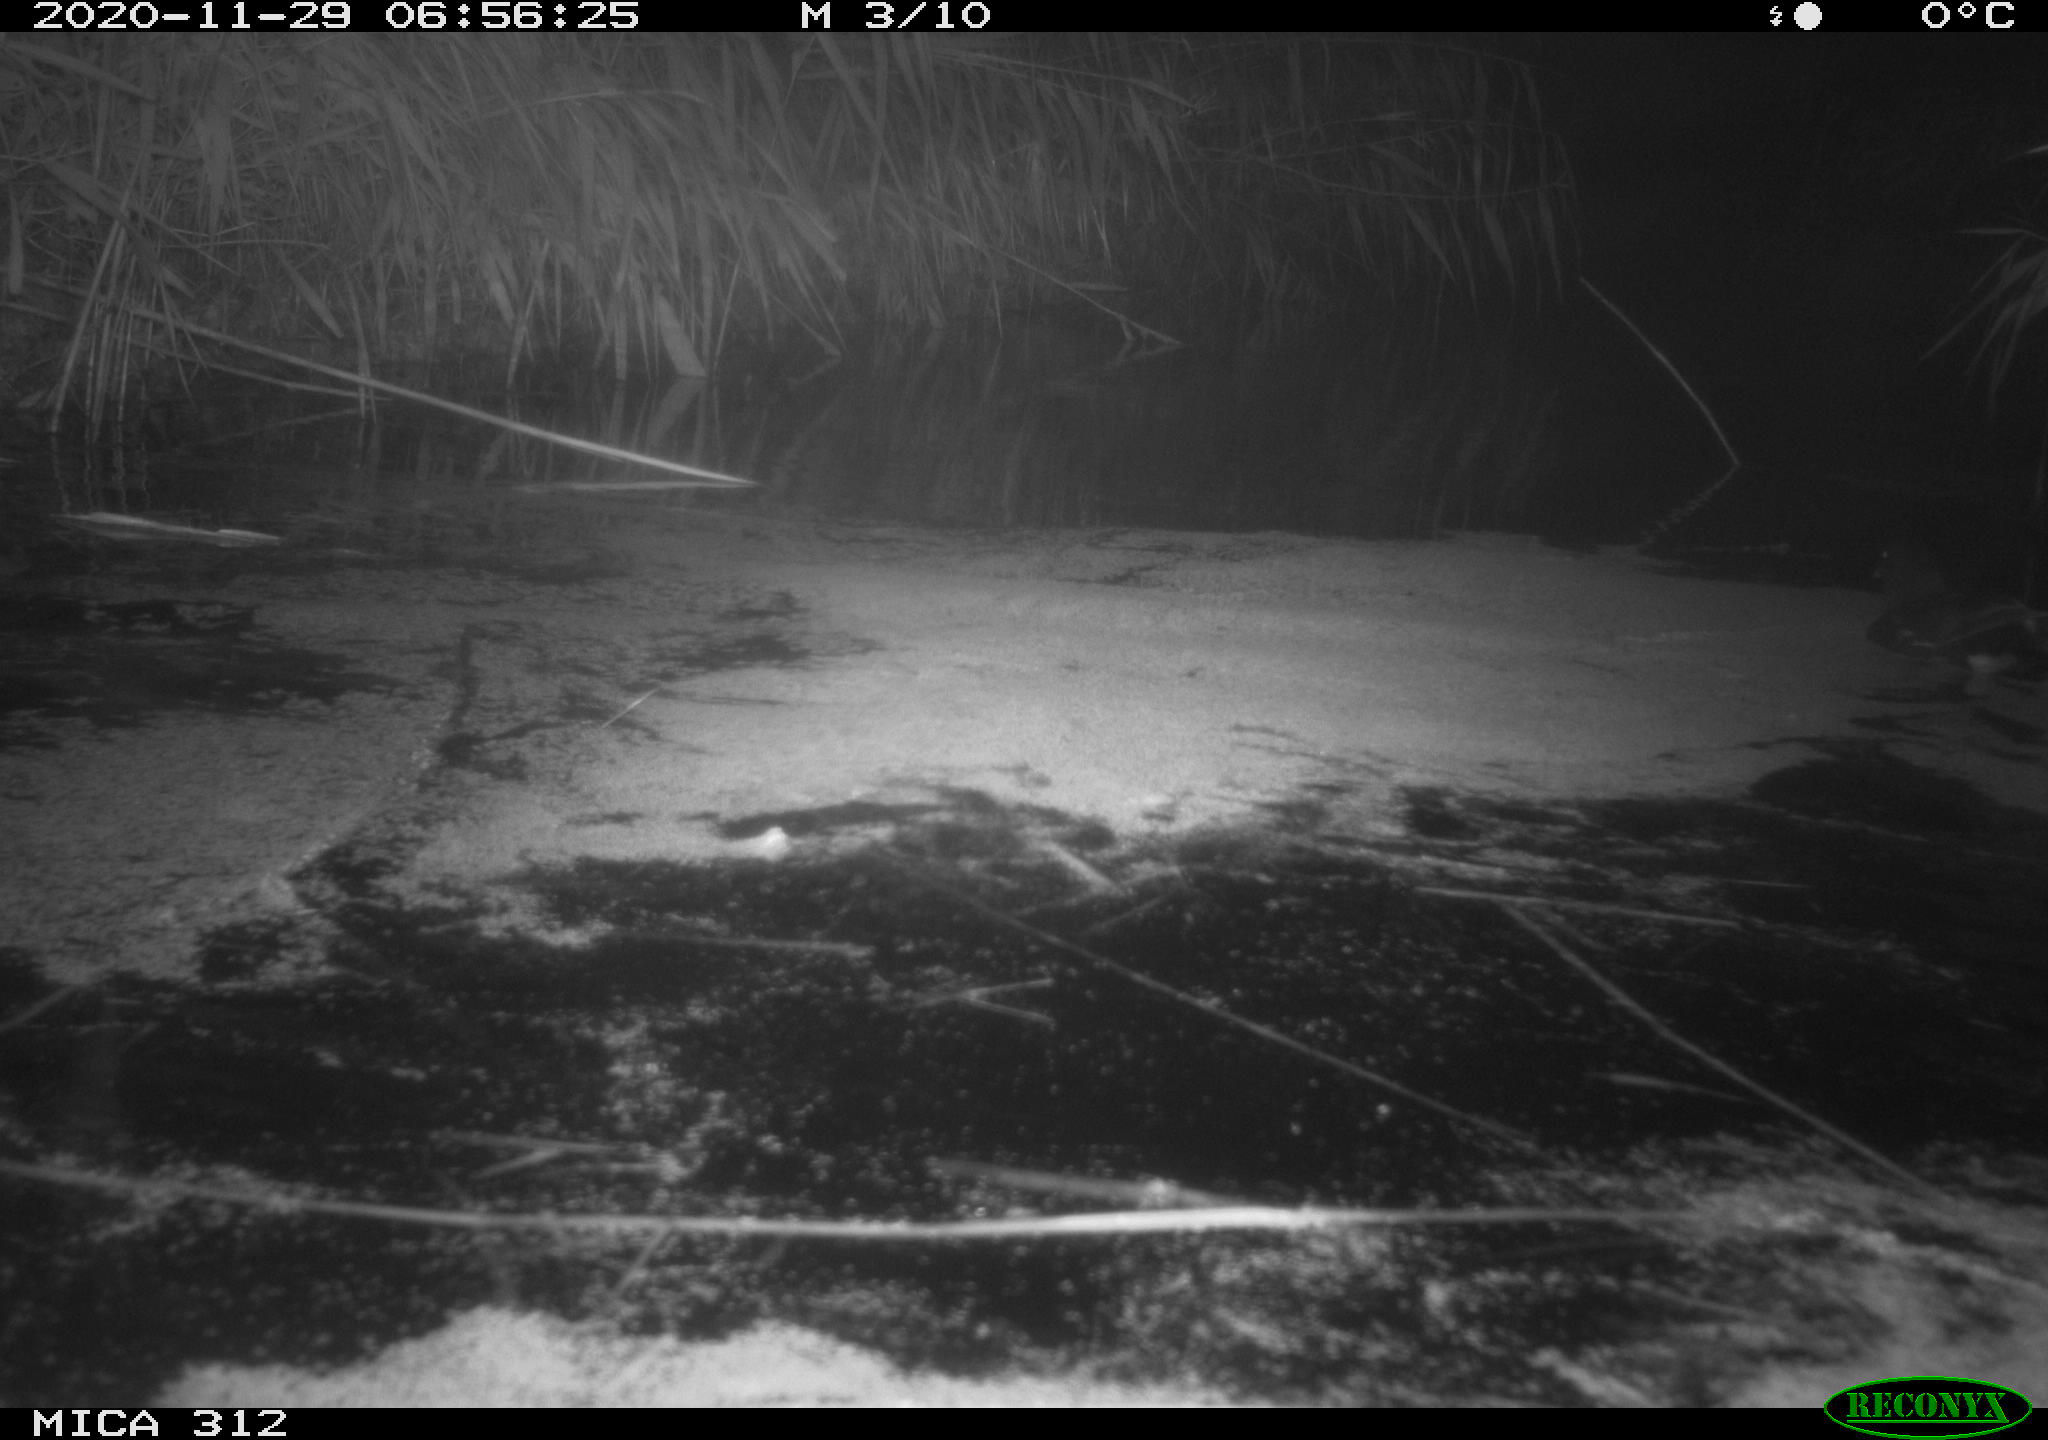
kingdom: Animalia
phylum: Chordata
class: Aves
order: Gruiformes
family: Rallidae
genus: Gallinula
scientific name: Gallinula chloropus
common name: Common moorhen
